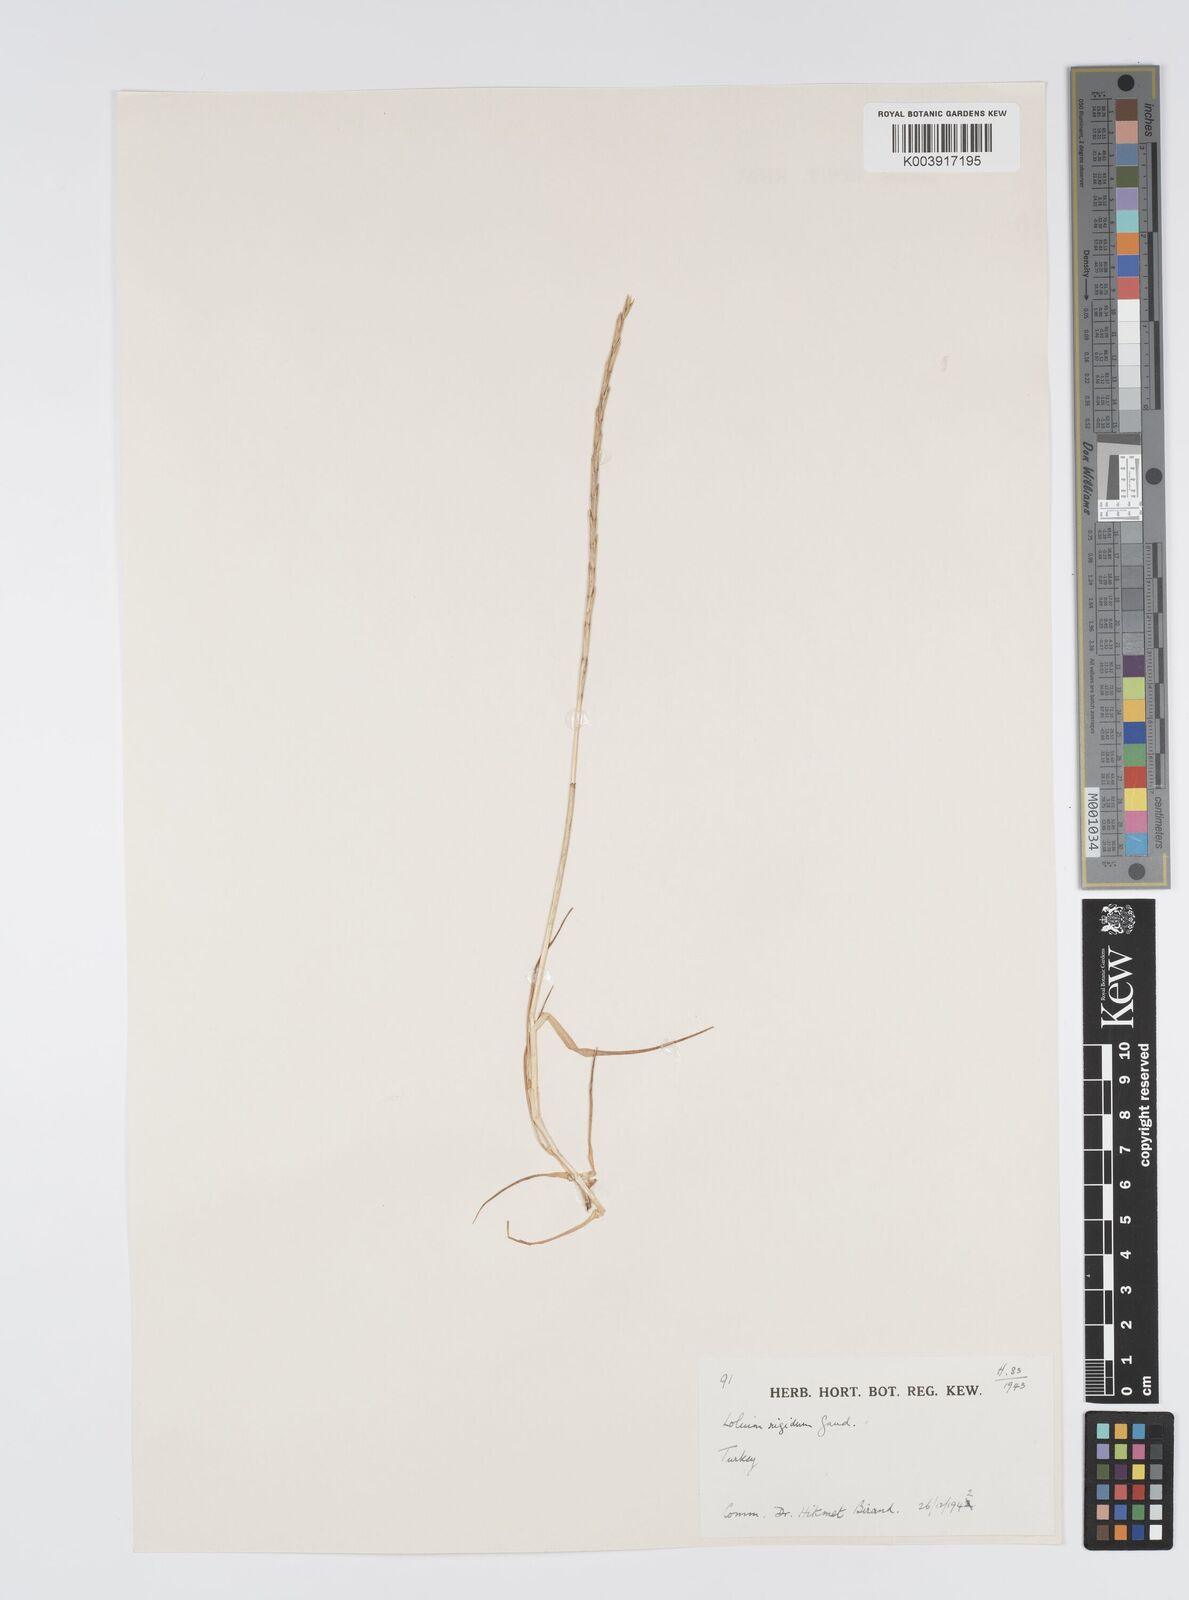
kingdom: Plantae
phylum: Tracheophyta
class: Liliopsida
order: Poales
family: Poaceae
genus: Lolium
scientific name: Lolium rigidum
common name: Wimmera ryegrass
